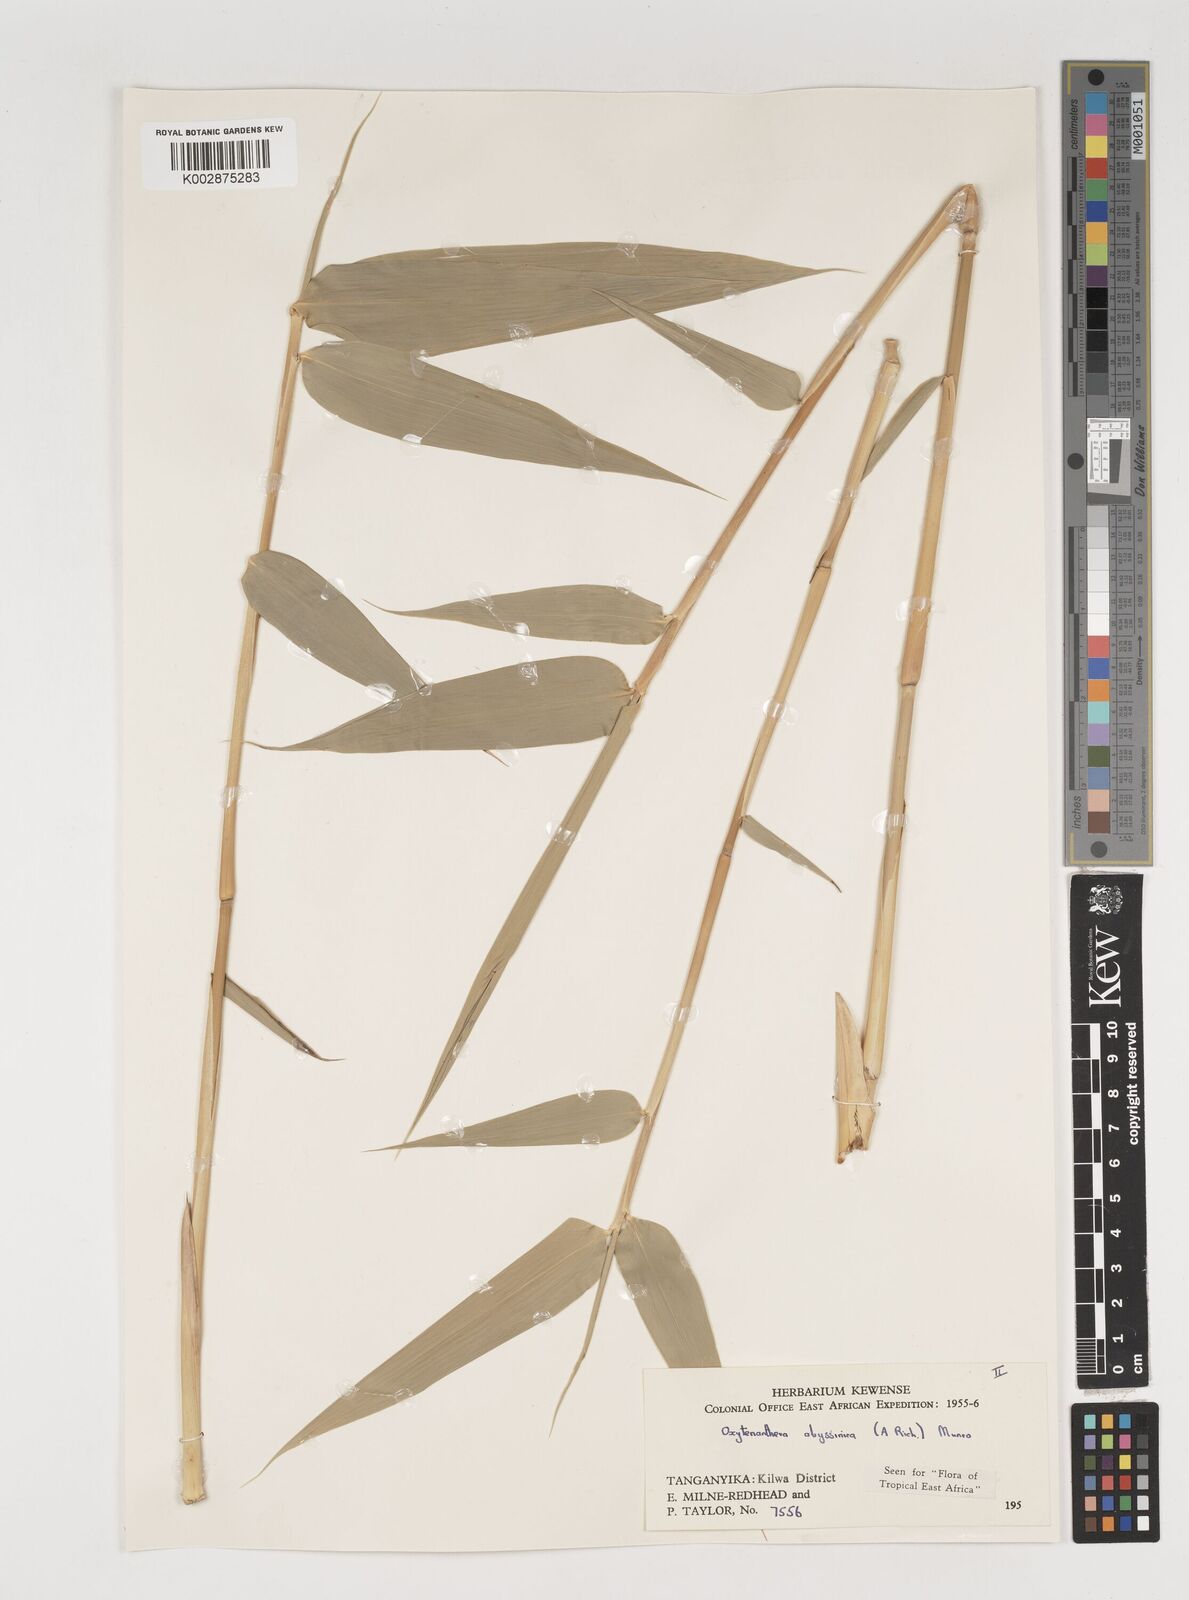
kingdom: Plantae
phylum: Tracheophyta
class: Liliopsida
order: Poales
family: Poaceae
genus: Oxytenanthera
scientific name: Oxytenanthera abyssinica
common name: Wine bamboo
